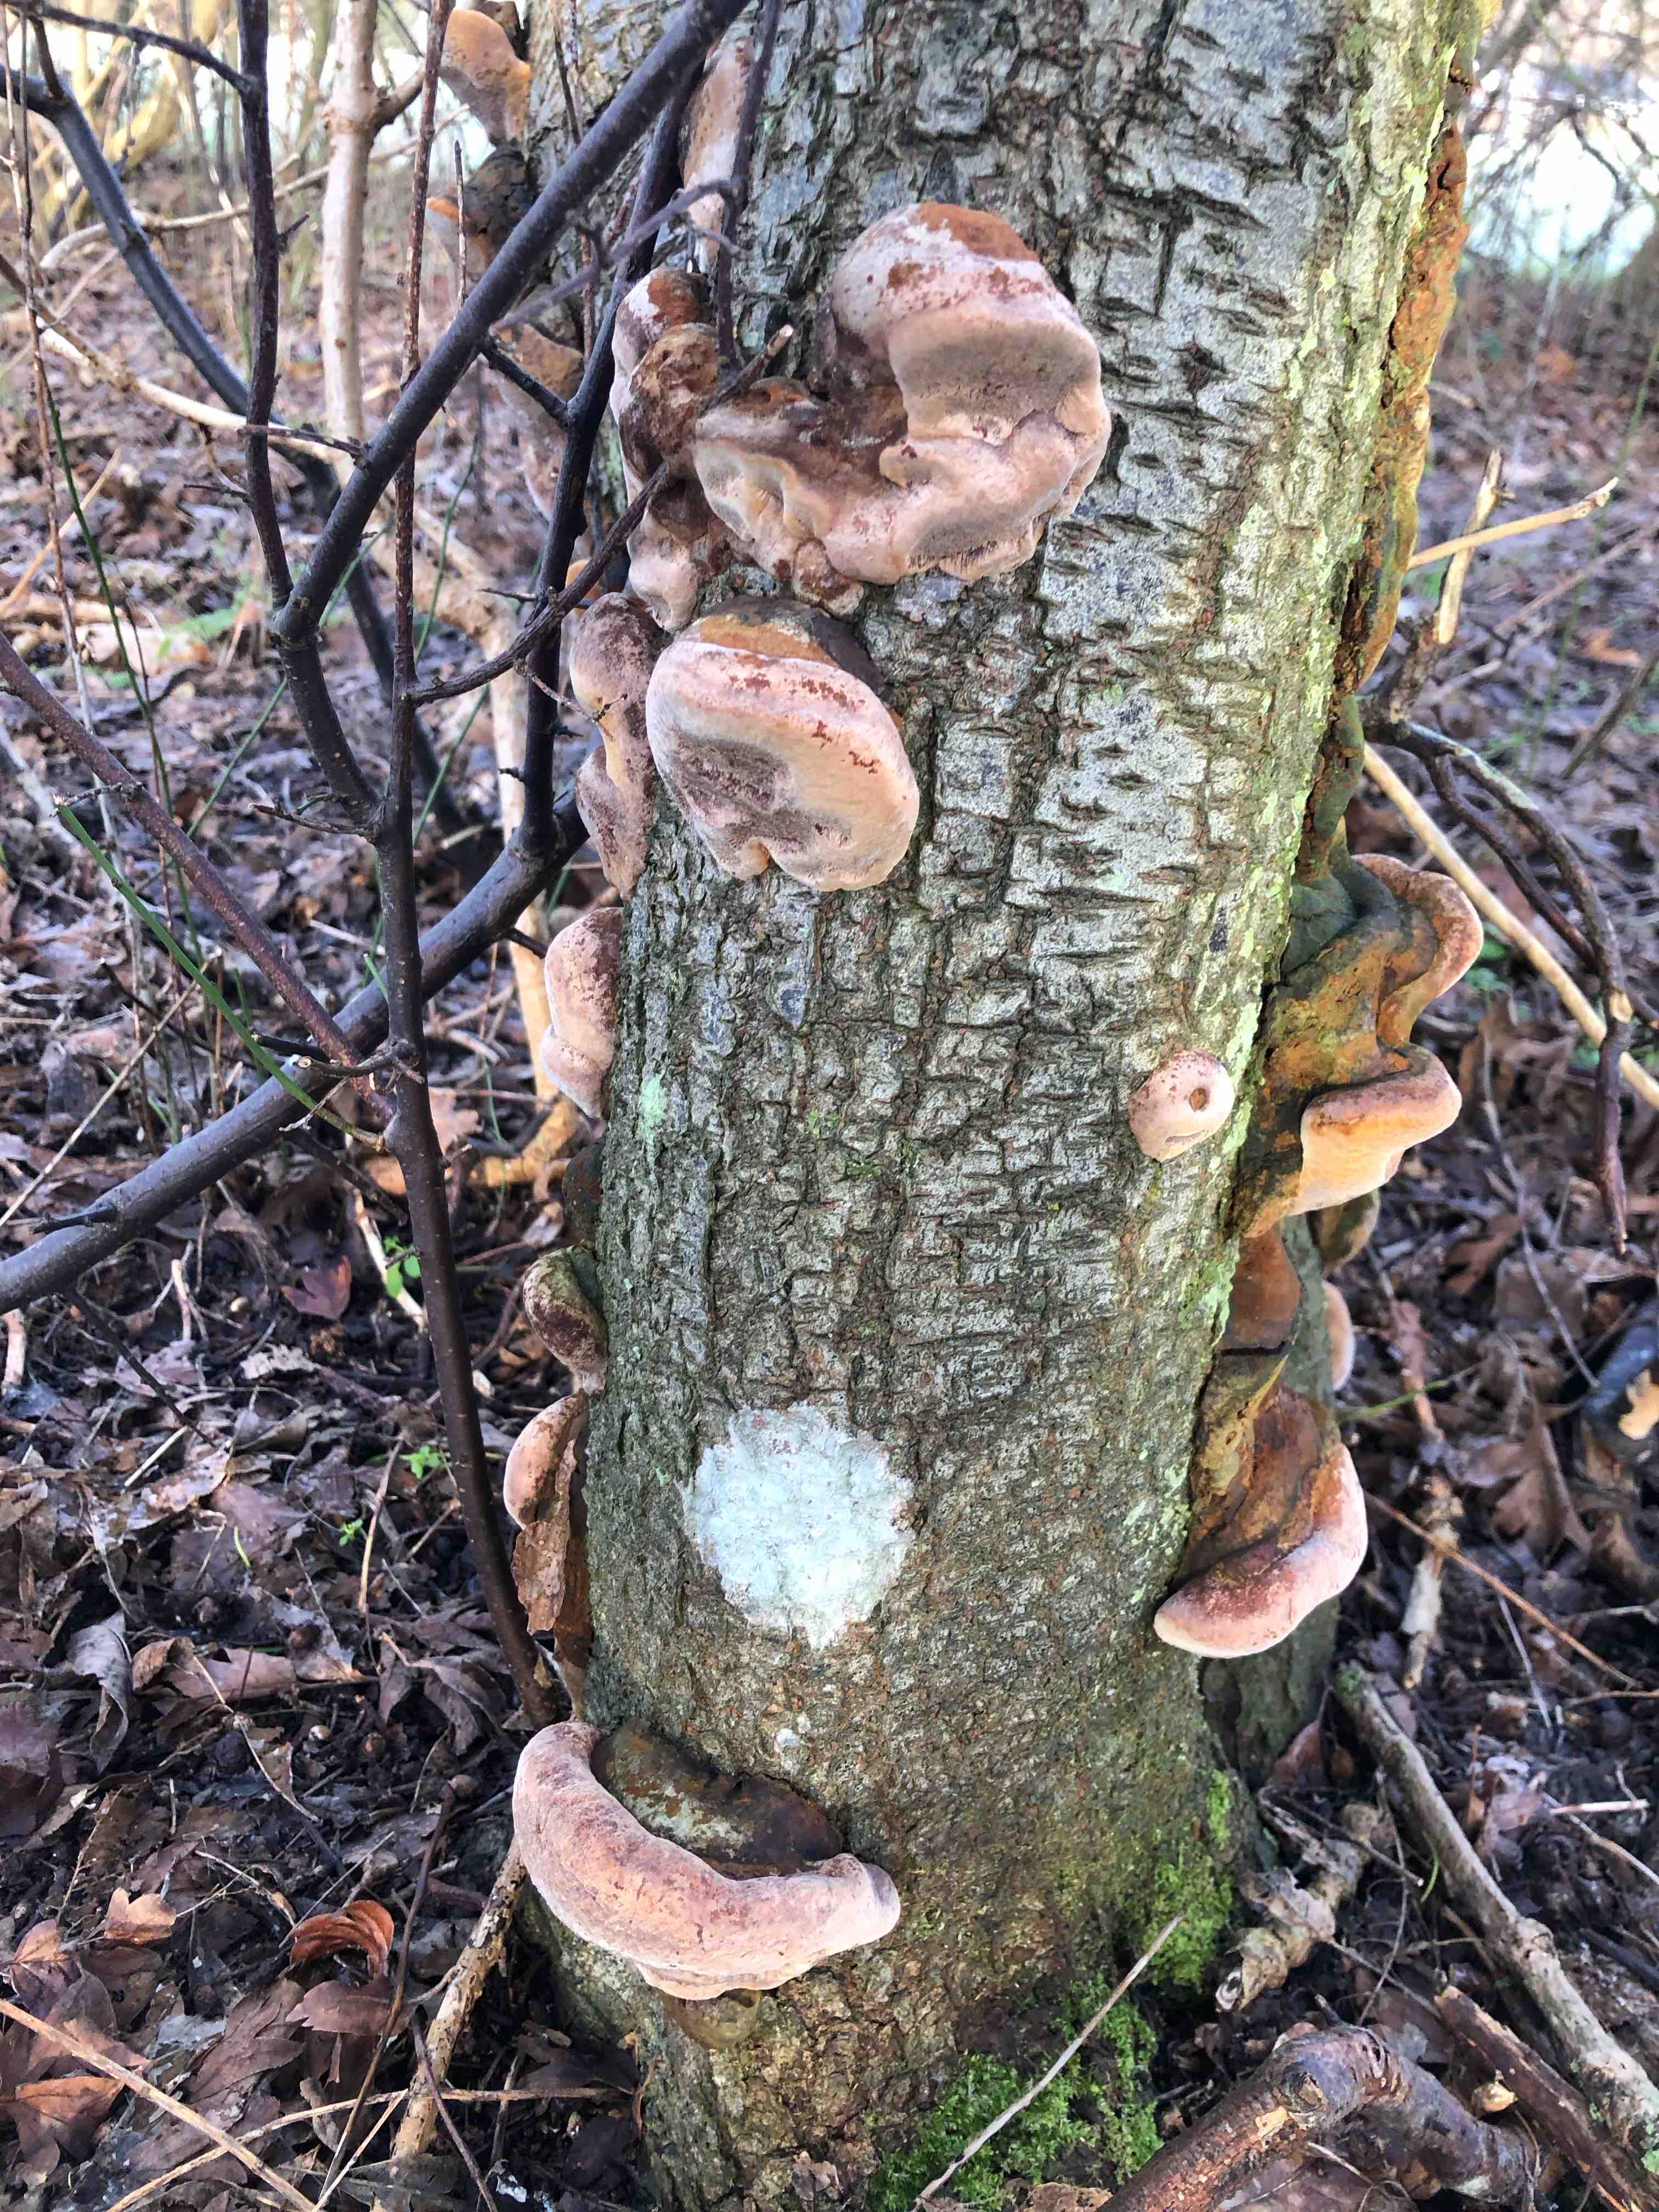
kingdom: Fungi
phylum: Basidiomycota
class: Agaricomycetes
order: Hymenochaetales
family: Hymenochaetaceae
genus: Phellinus
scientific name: Phellinus pomaceus
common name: blomme-ildporesvamp
